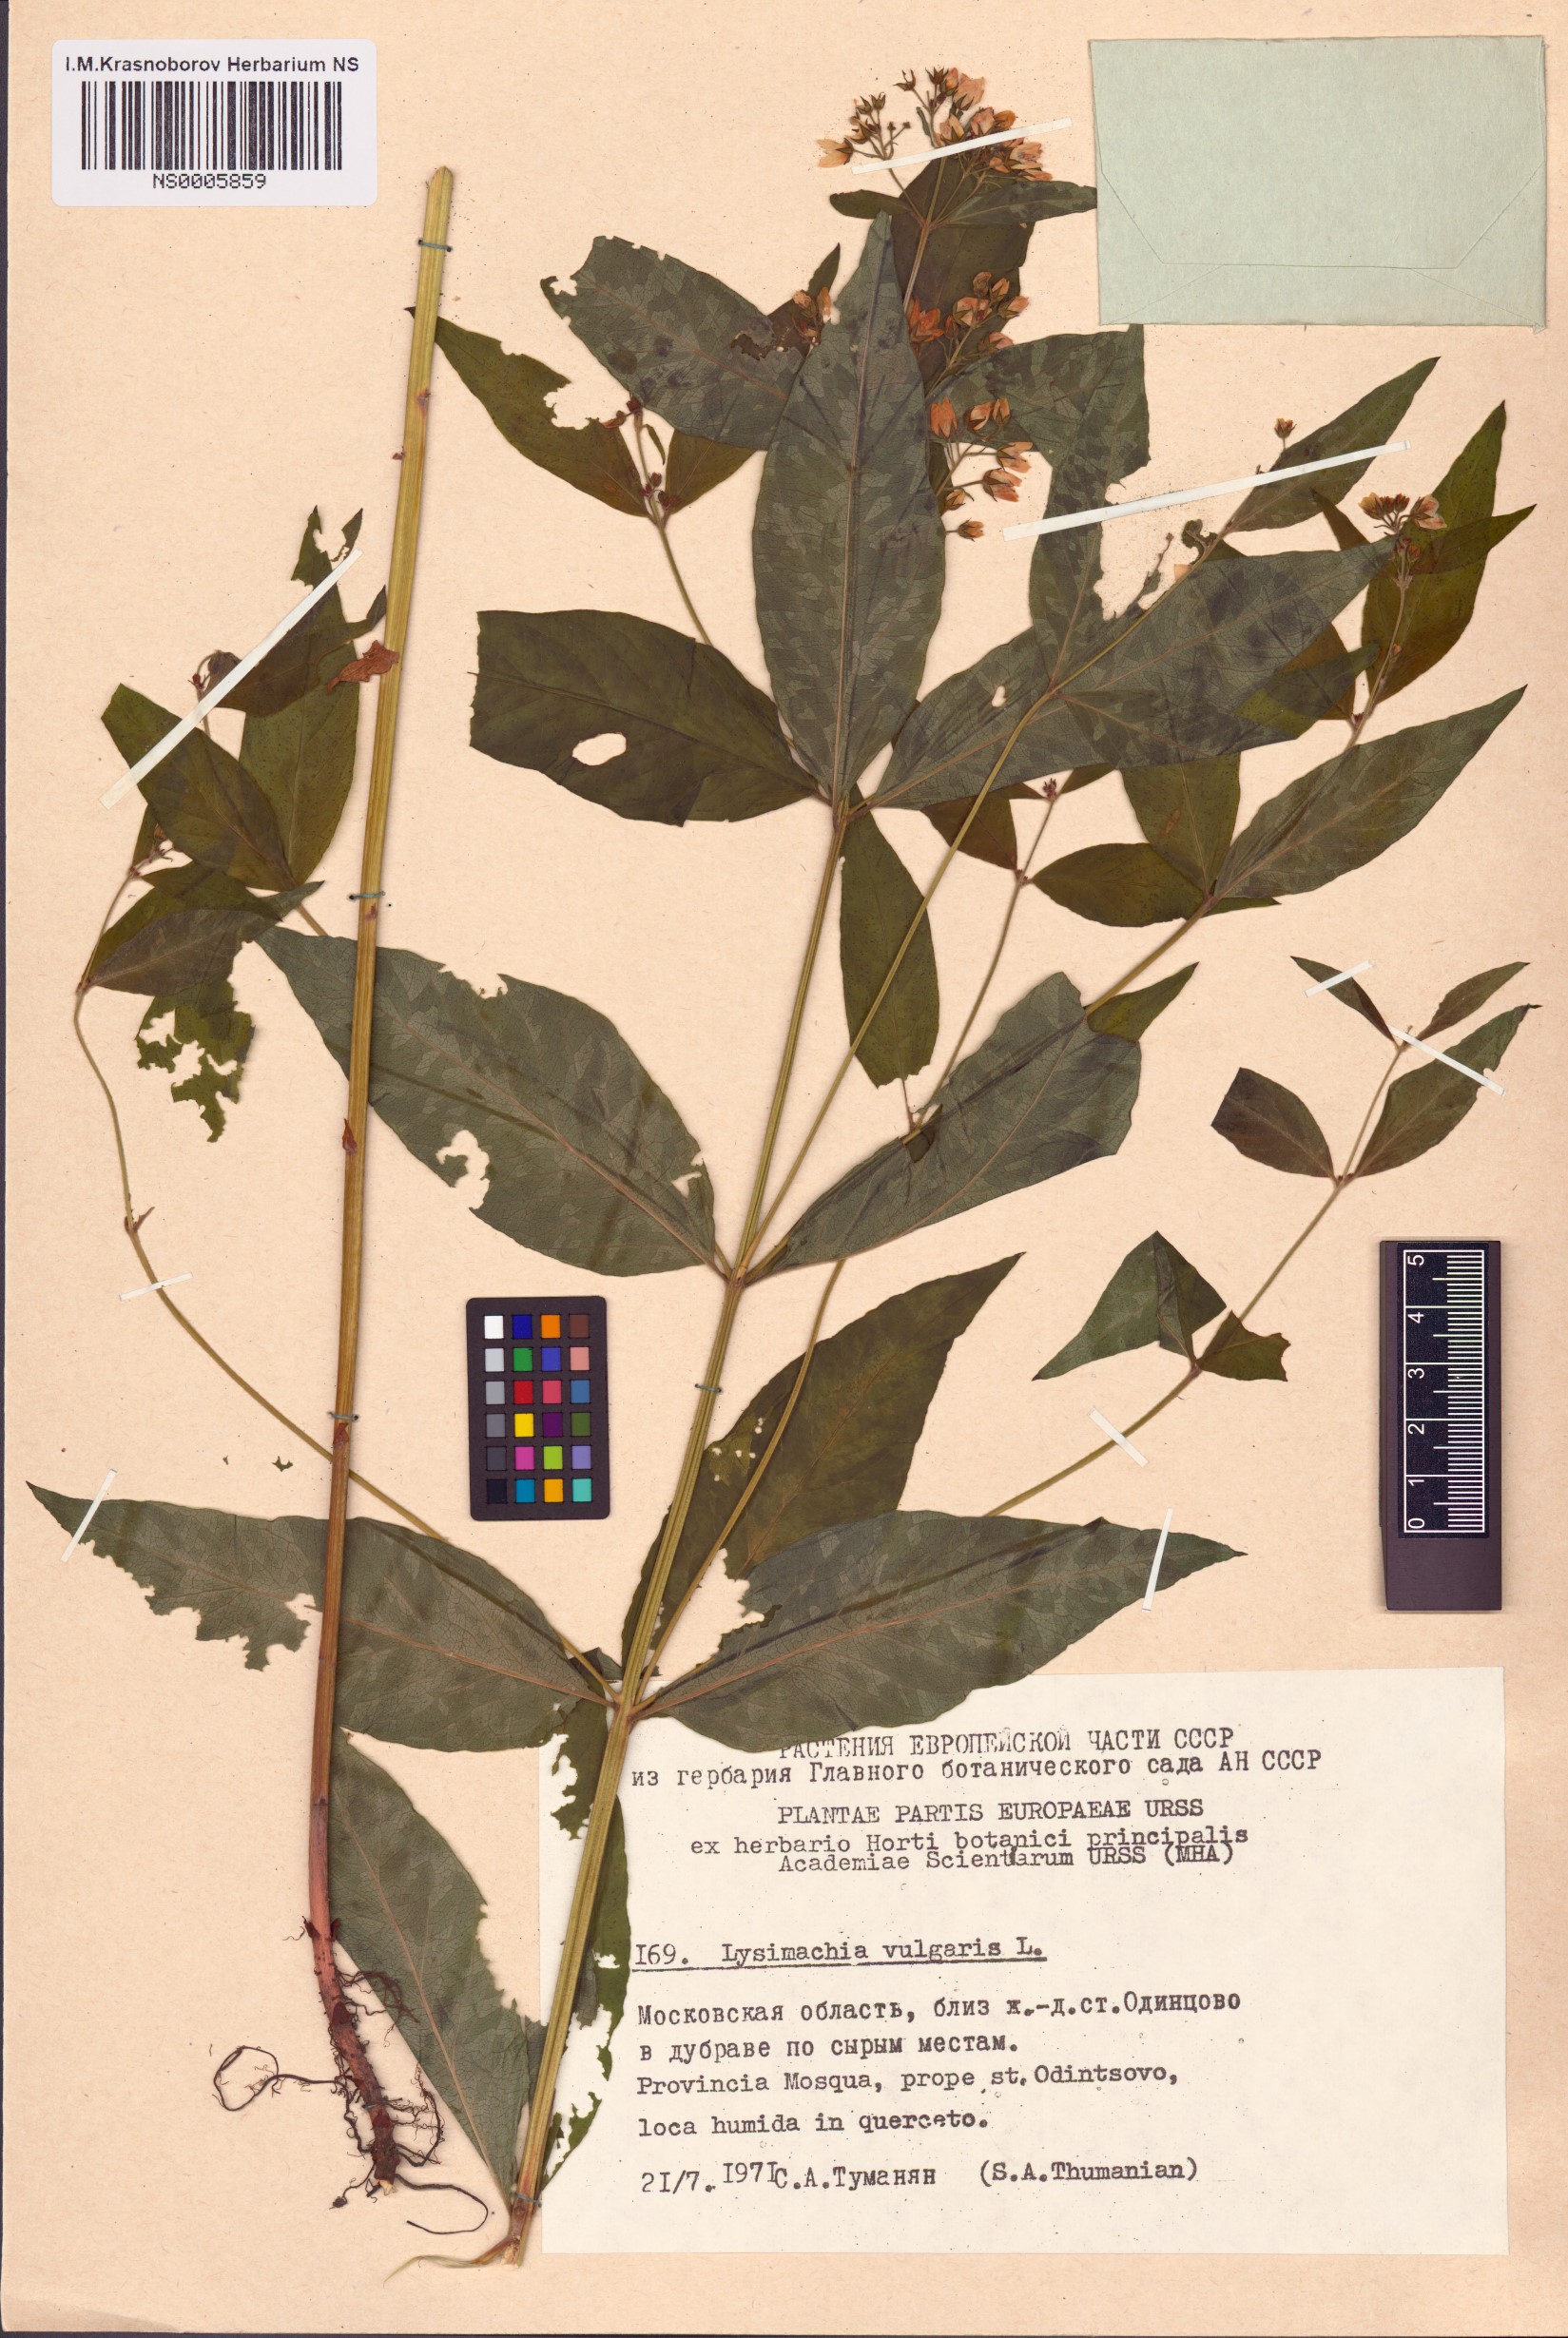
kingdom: Plantae
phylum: Tracheophyta
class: Magnoliopsida
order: Ericales
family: Primulaceae
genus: Lysimachia
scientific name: Lysimachia vulgaris
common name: Yellow loosestrife
